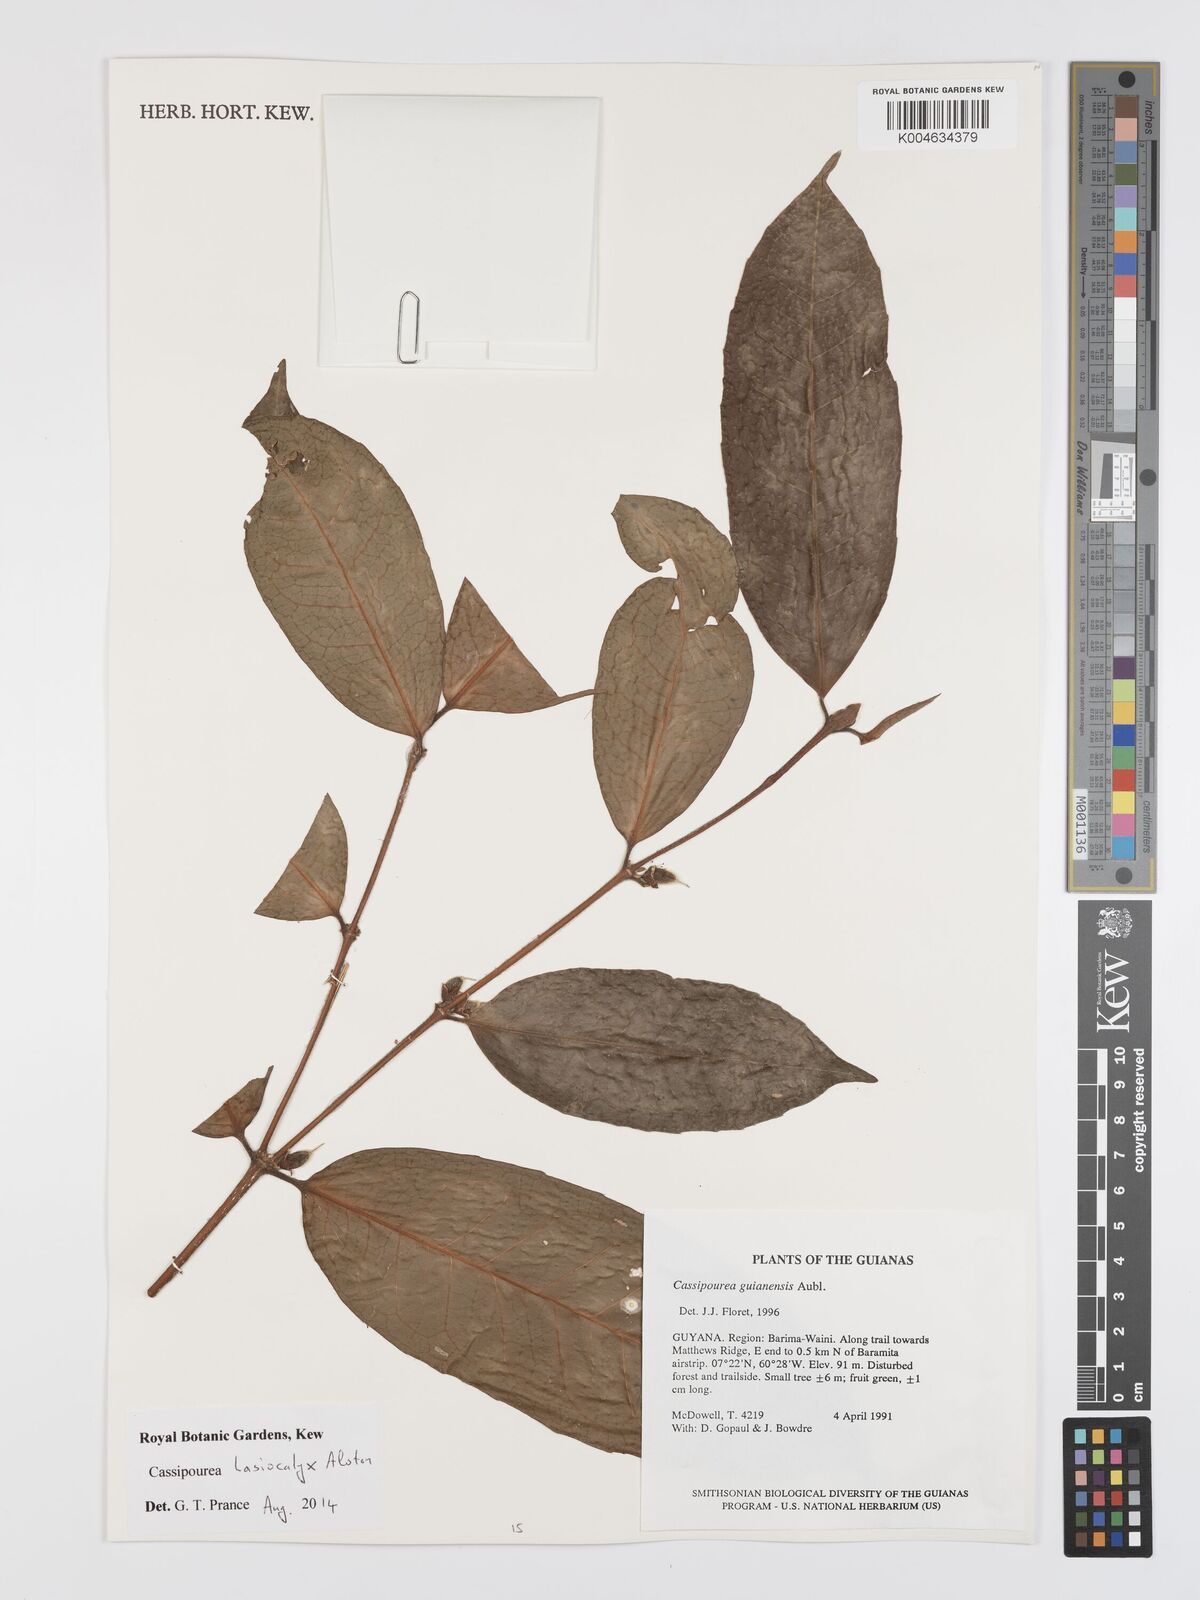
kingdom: Plantae
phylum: Tracheophyta
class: Magnoliopsida
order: Malpighiales
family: Rhizophoraceae
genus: Cassipourea
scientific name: Cassipourea lasiocalyx
